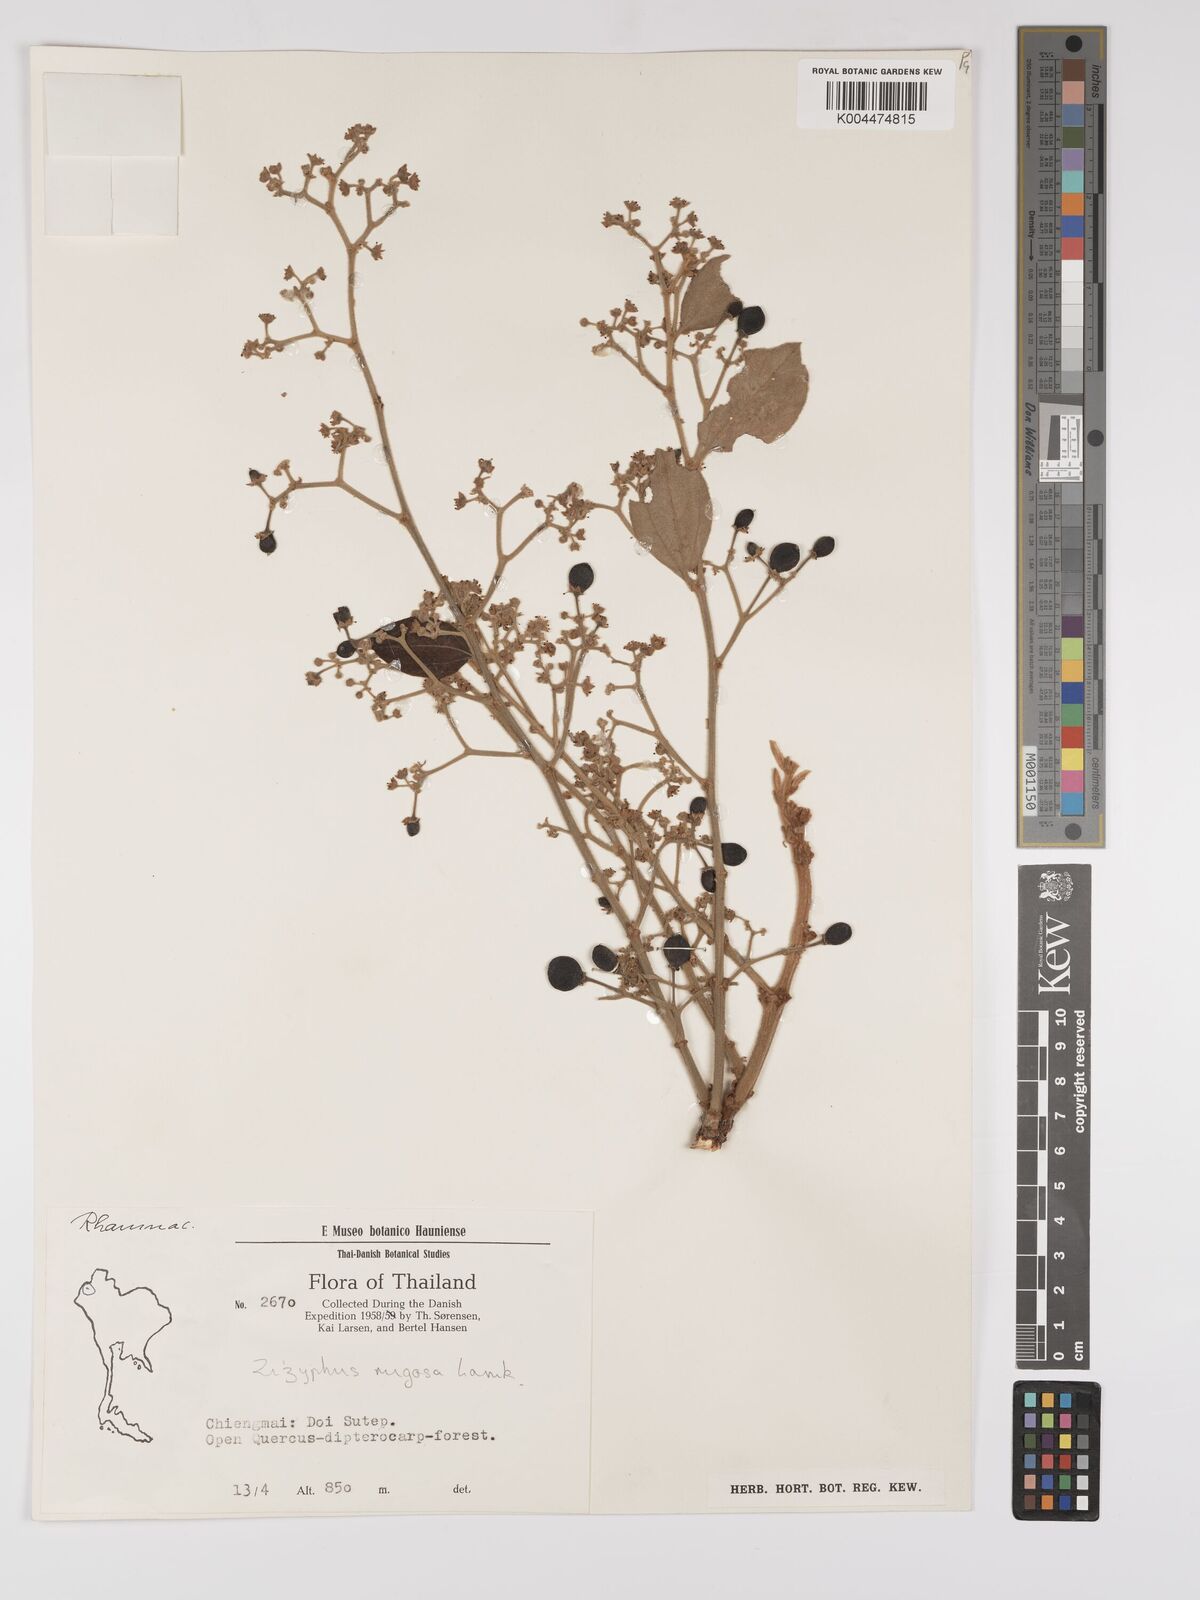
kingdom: Plantae
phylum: Tracheophyta
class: Magnoliopsida
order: Rosales
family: Rhamnaceae
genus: Ziziphus
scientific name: Ziziphus rugosa
